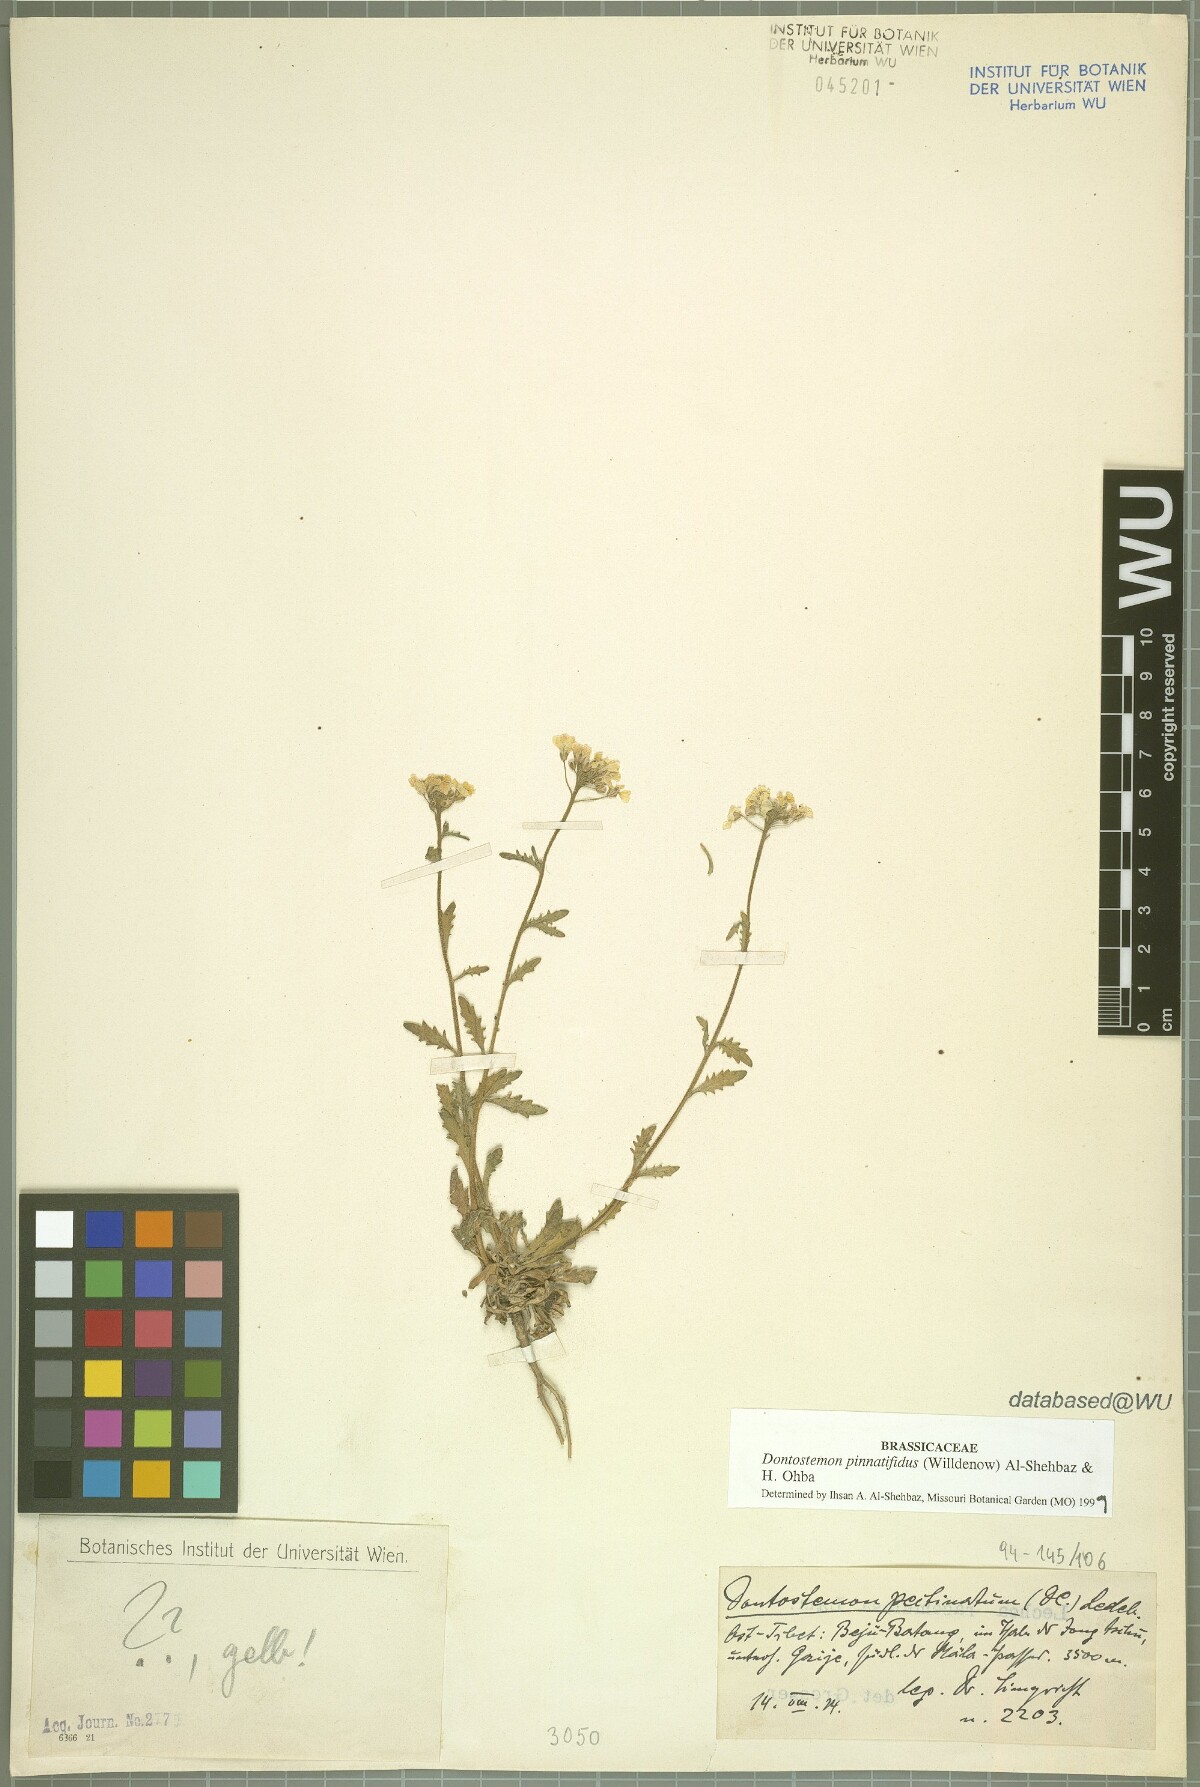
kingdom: Plantae
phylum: Tracheophyta
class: Magnoliopsida
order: Brassicales
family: Brassicaceae
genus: Dontostemon
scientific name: Dontostemon pinnatifidus
